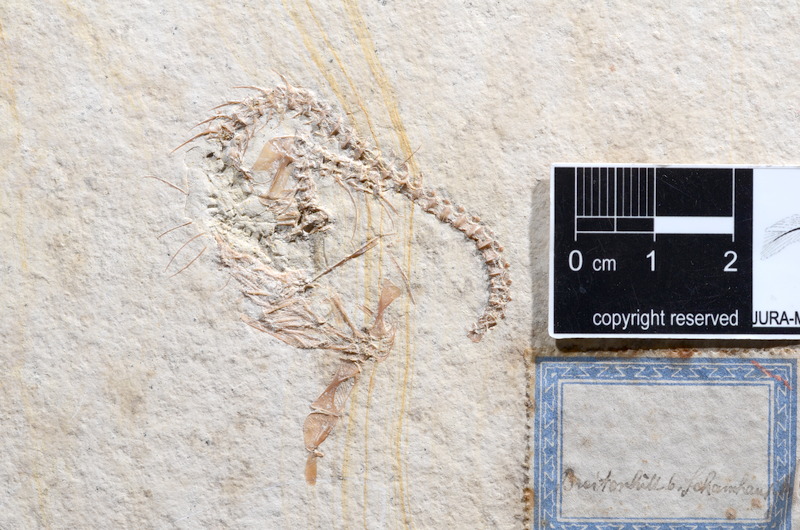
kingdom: Animalia
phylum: Chordata
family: Ascalaboidae
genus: Tharsis
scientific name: Tharsis dubius
